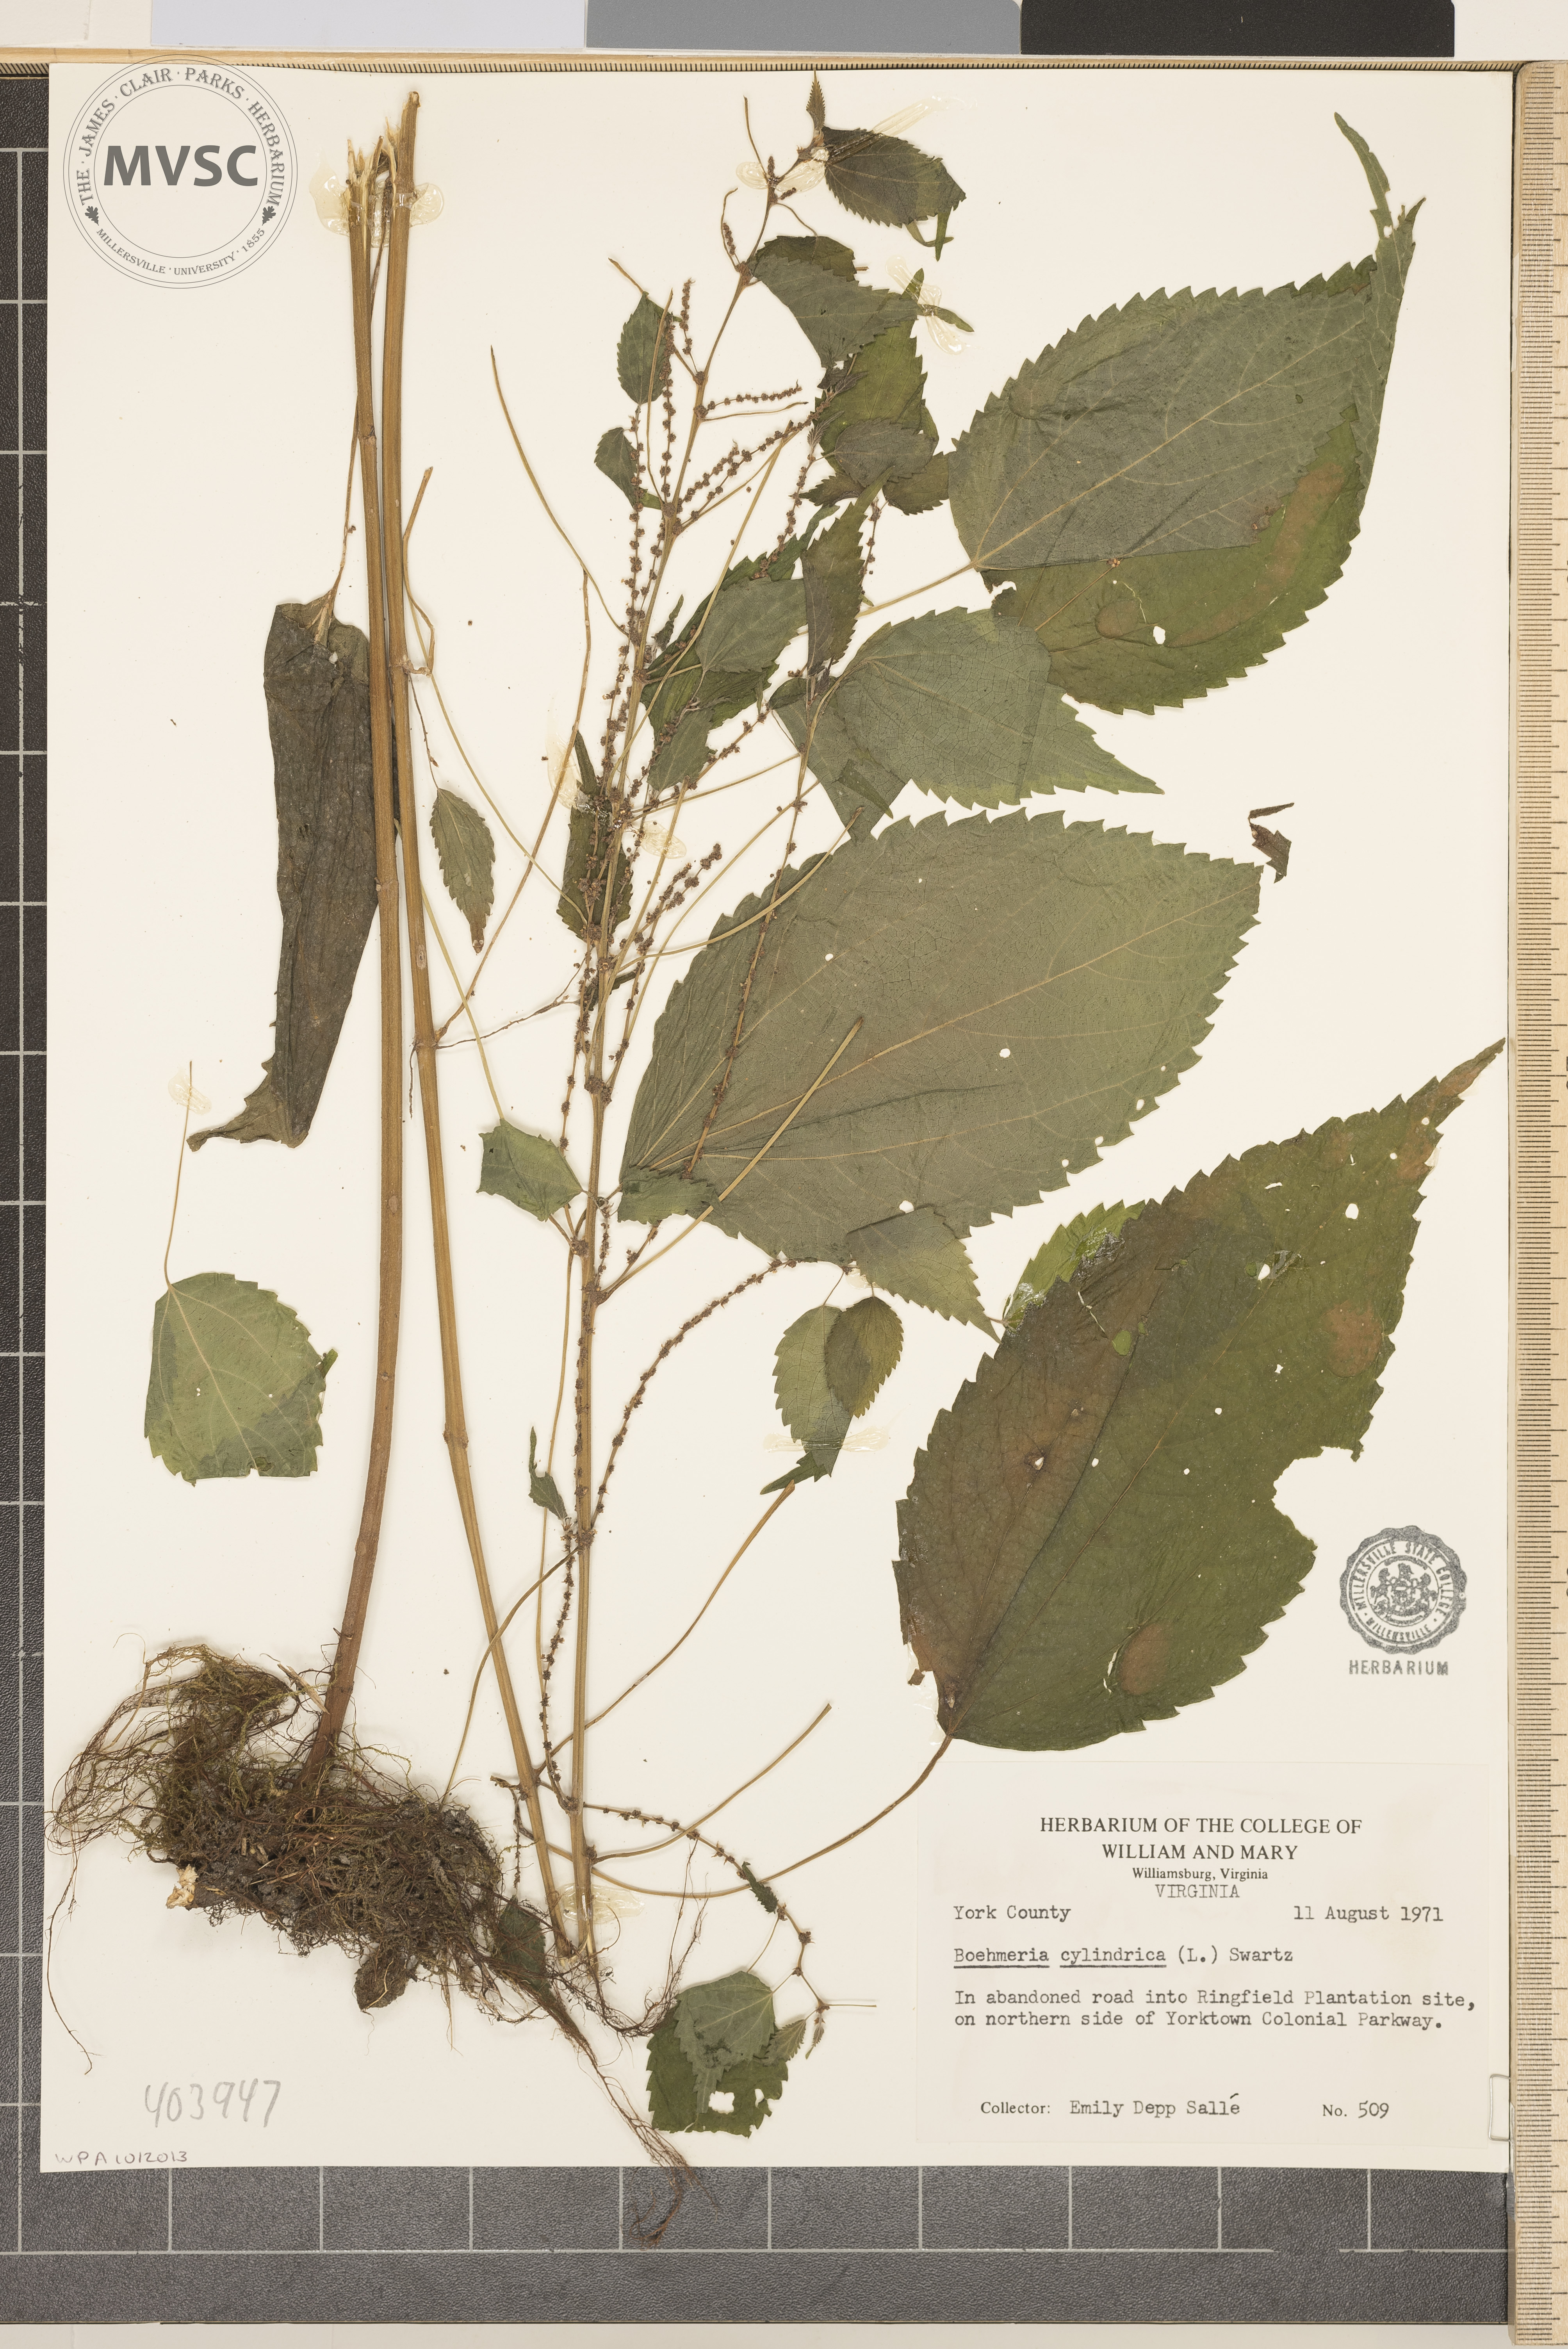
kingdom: Plantae
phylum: Tracheophyta
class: Magnoliopsida
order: Rosales
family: Urticaceae
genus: Boehmeria
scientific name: Boehmeria cylindrica
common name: Bog-hemp
